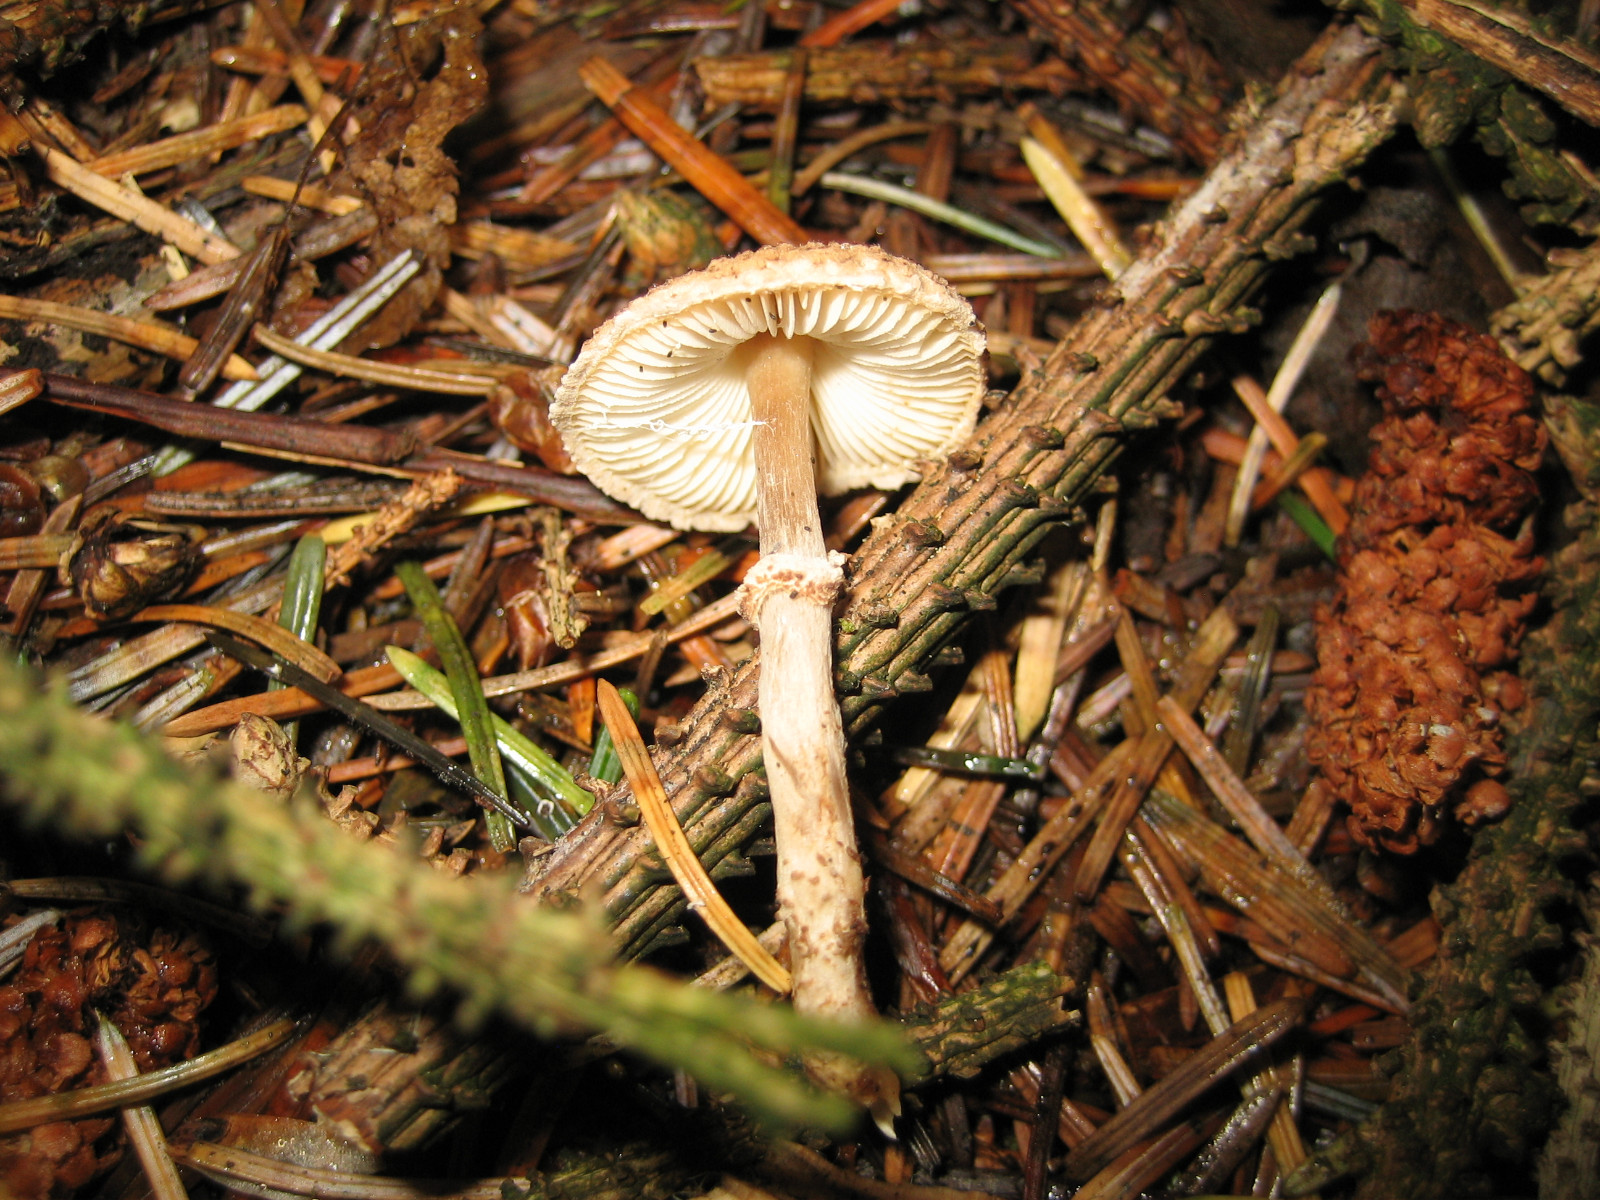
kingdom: Fungi
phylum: Basidiomycota
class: Agaricomycetes
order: Agaricales
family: Agaricaceae
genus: Lepiota
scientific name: Lepiota felina
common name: sortskællet parasolhat
